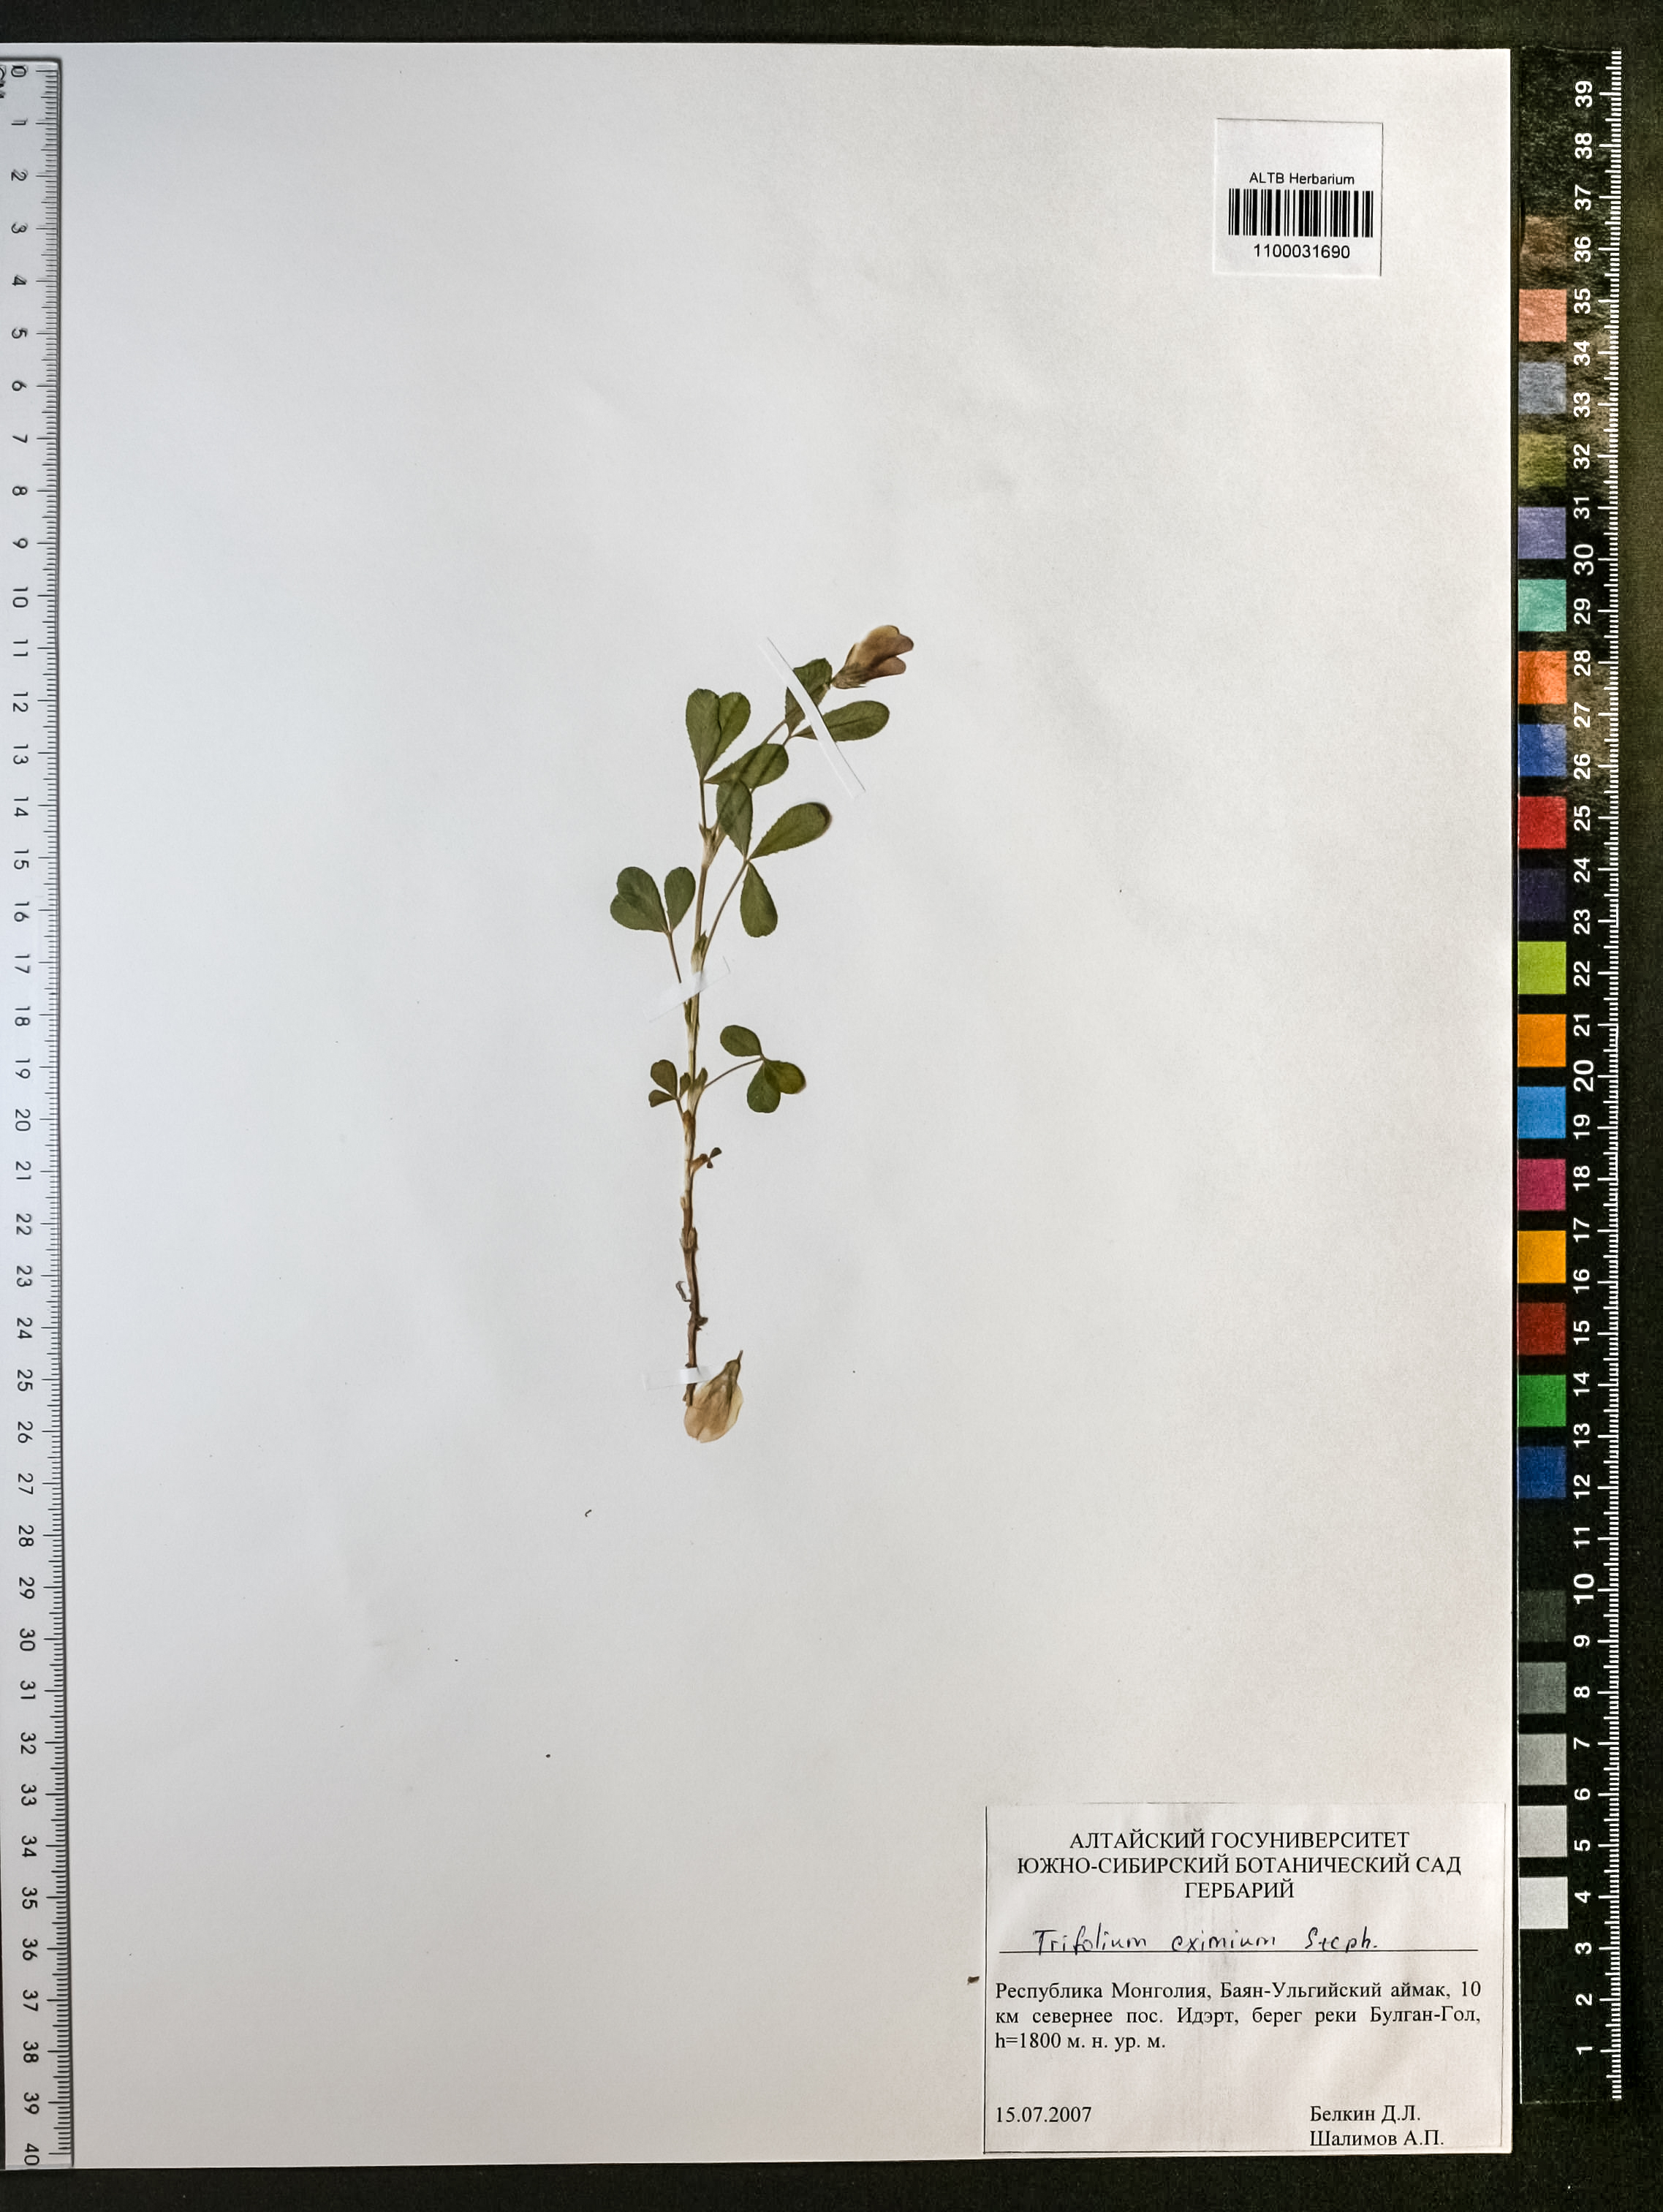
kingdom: Plantae
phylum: Tracheophyta
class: Magnoliopsida
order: Fabales
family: Fabaceae
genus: Trifolium
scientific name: Trifolium eximium
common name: Excellent clover
